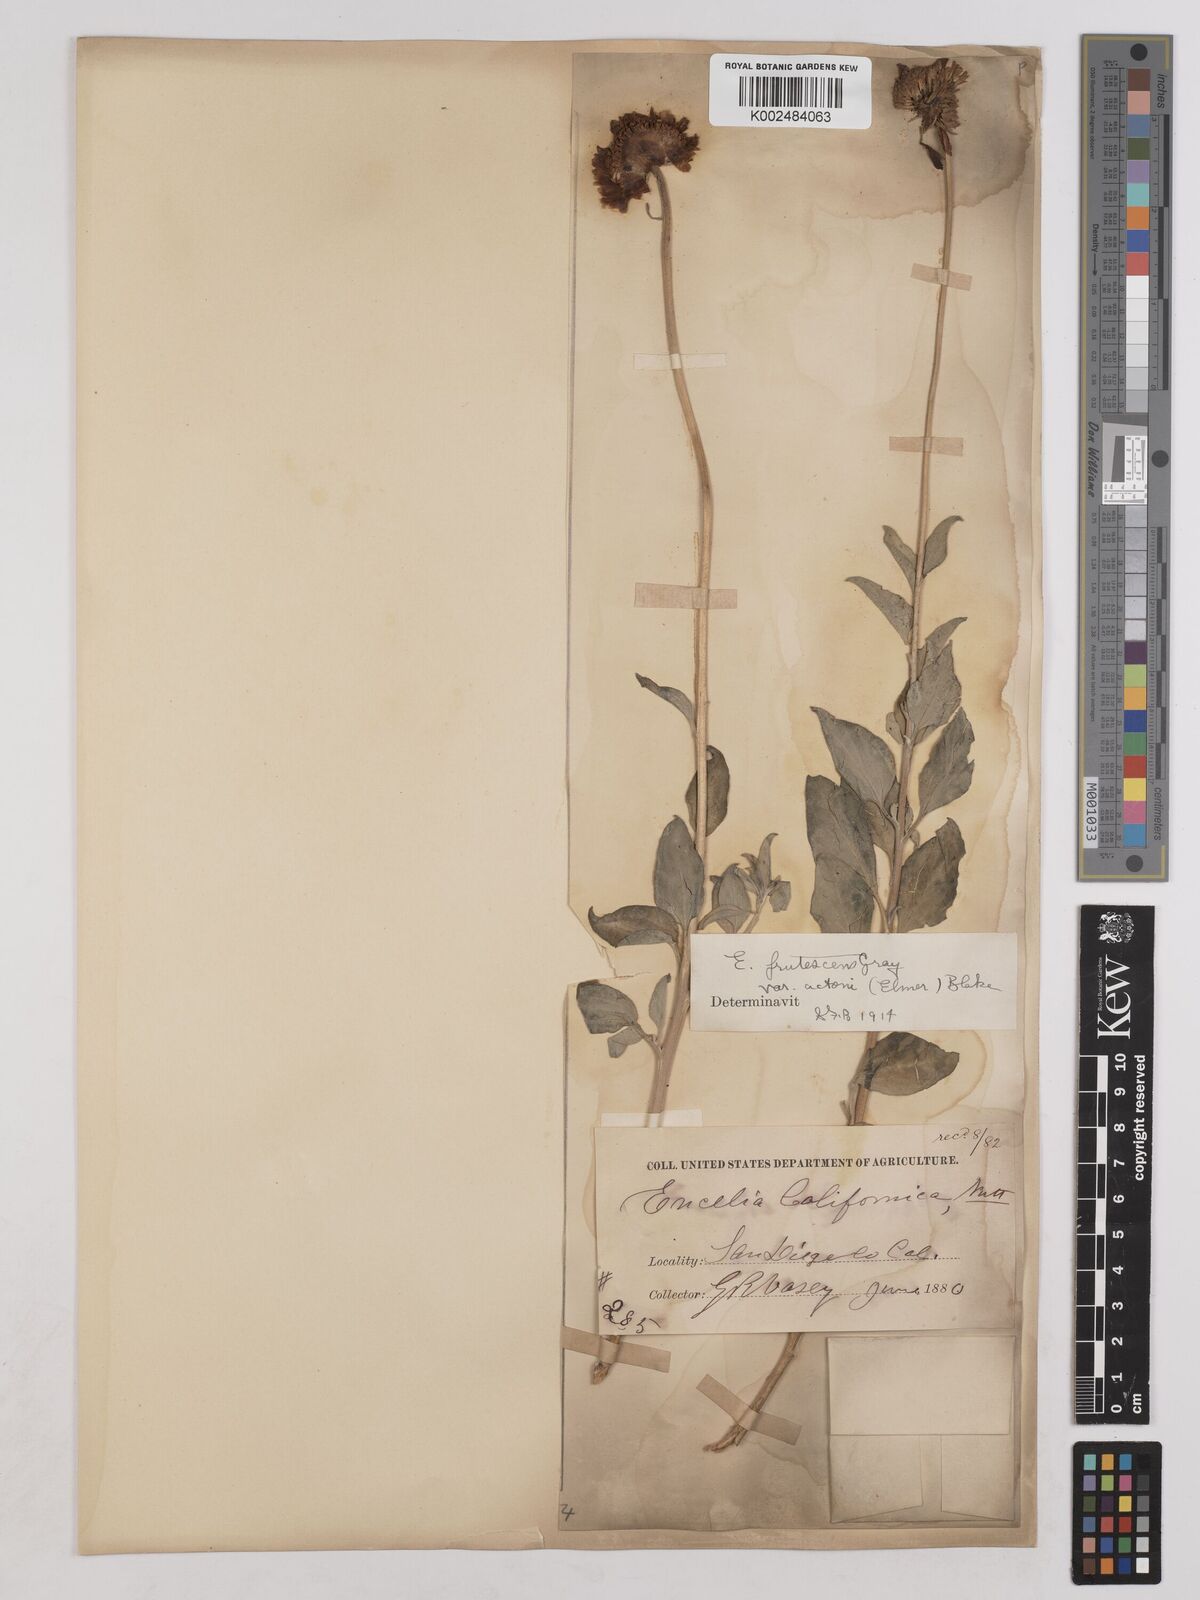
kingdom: Plantae
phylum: Tracheophyta
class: Magnoliopsida
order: Asterales
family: Asteraceae
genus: Encelia
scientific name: Encelia actoni
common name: Acton encelia
